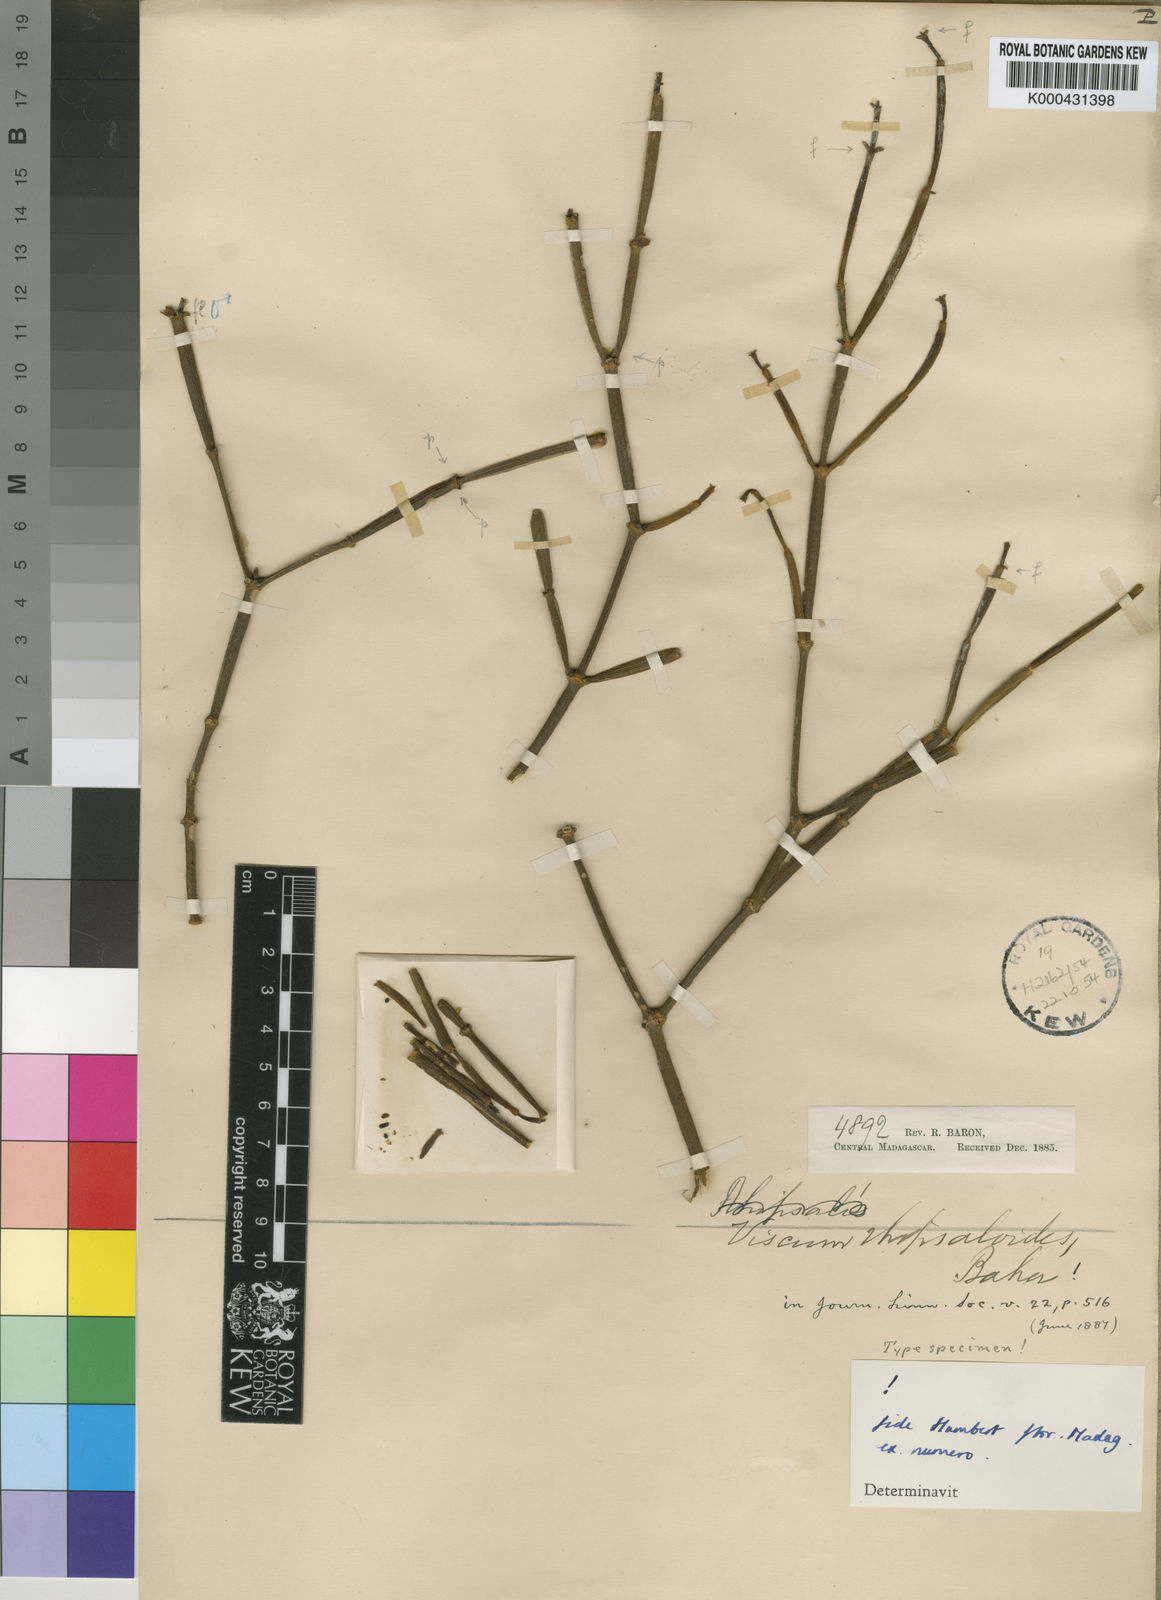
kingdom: Plantae
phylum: Tracheophyta
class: Magnoliopsida
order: Santalales
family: Viscaceae
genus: Viscum
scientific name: Viscum rhipsaloides
